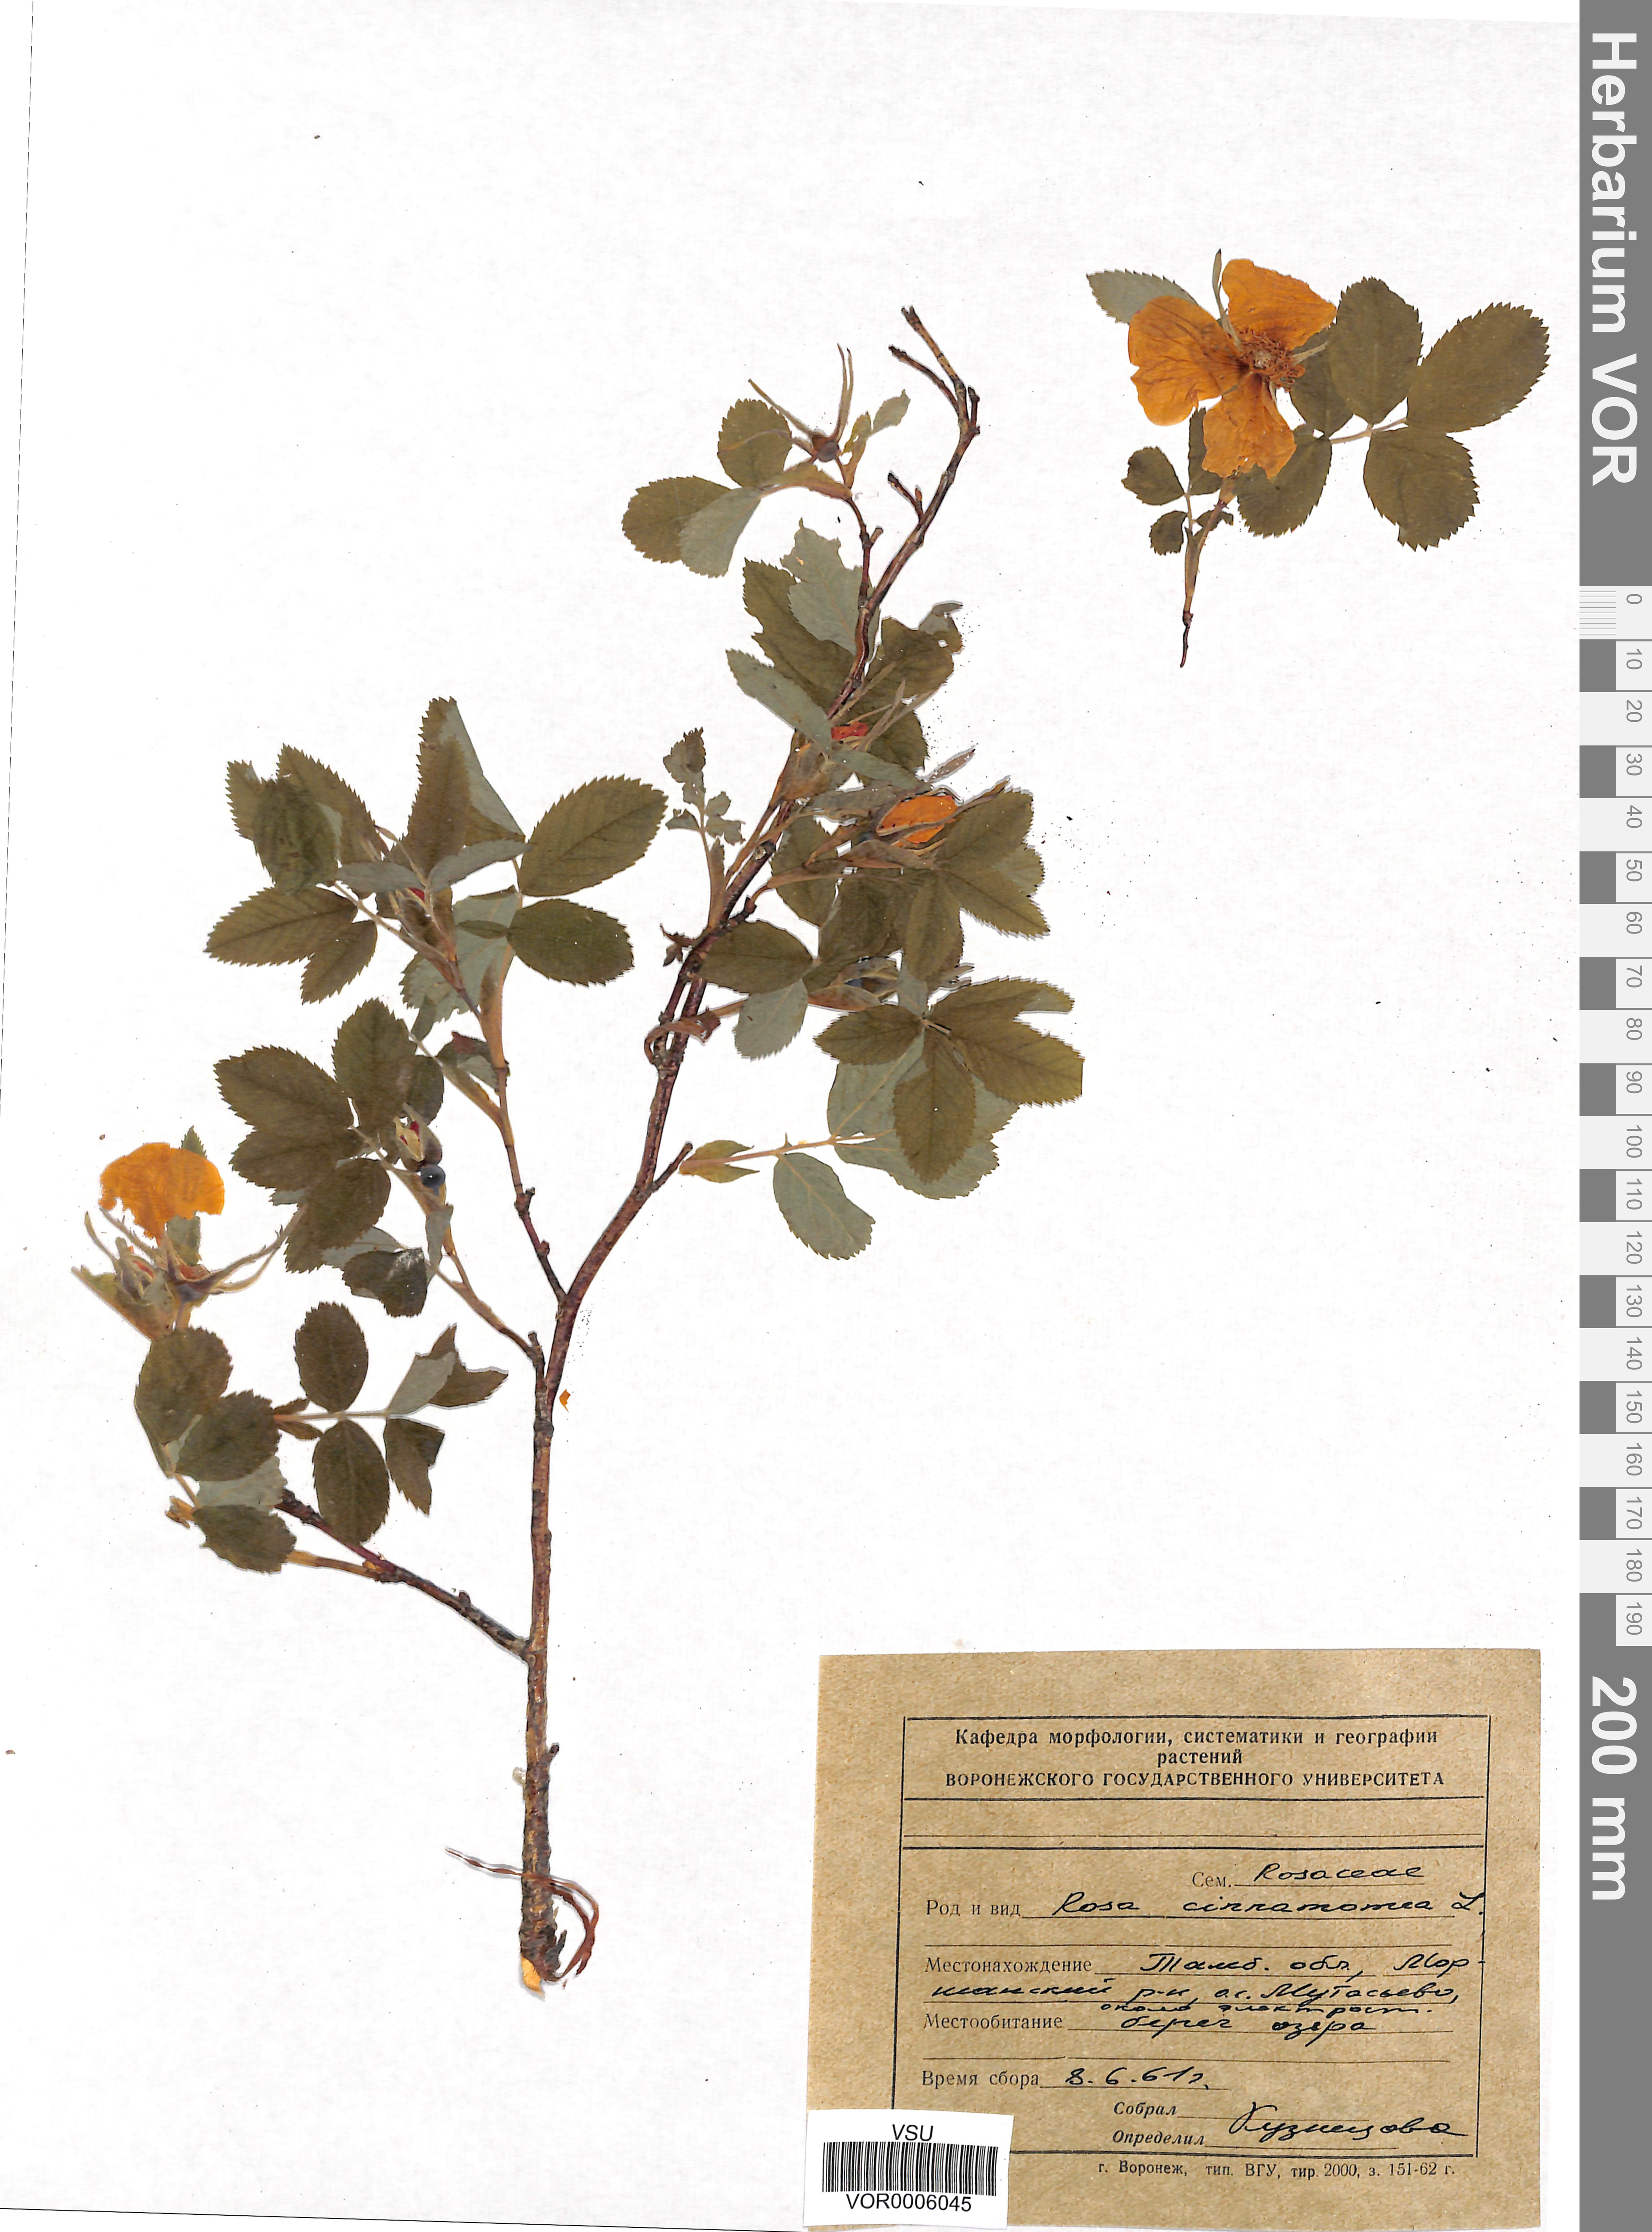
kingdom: Plantae
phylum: Tracheophyta
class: Magnoliopsida
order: Rosales
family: Rosaceae
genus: Rosa
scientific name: Rosa majalis
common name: Cinnamon rose
